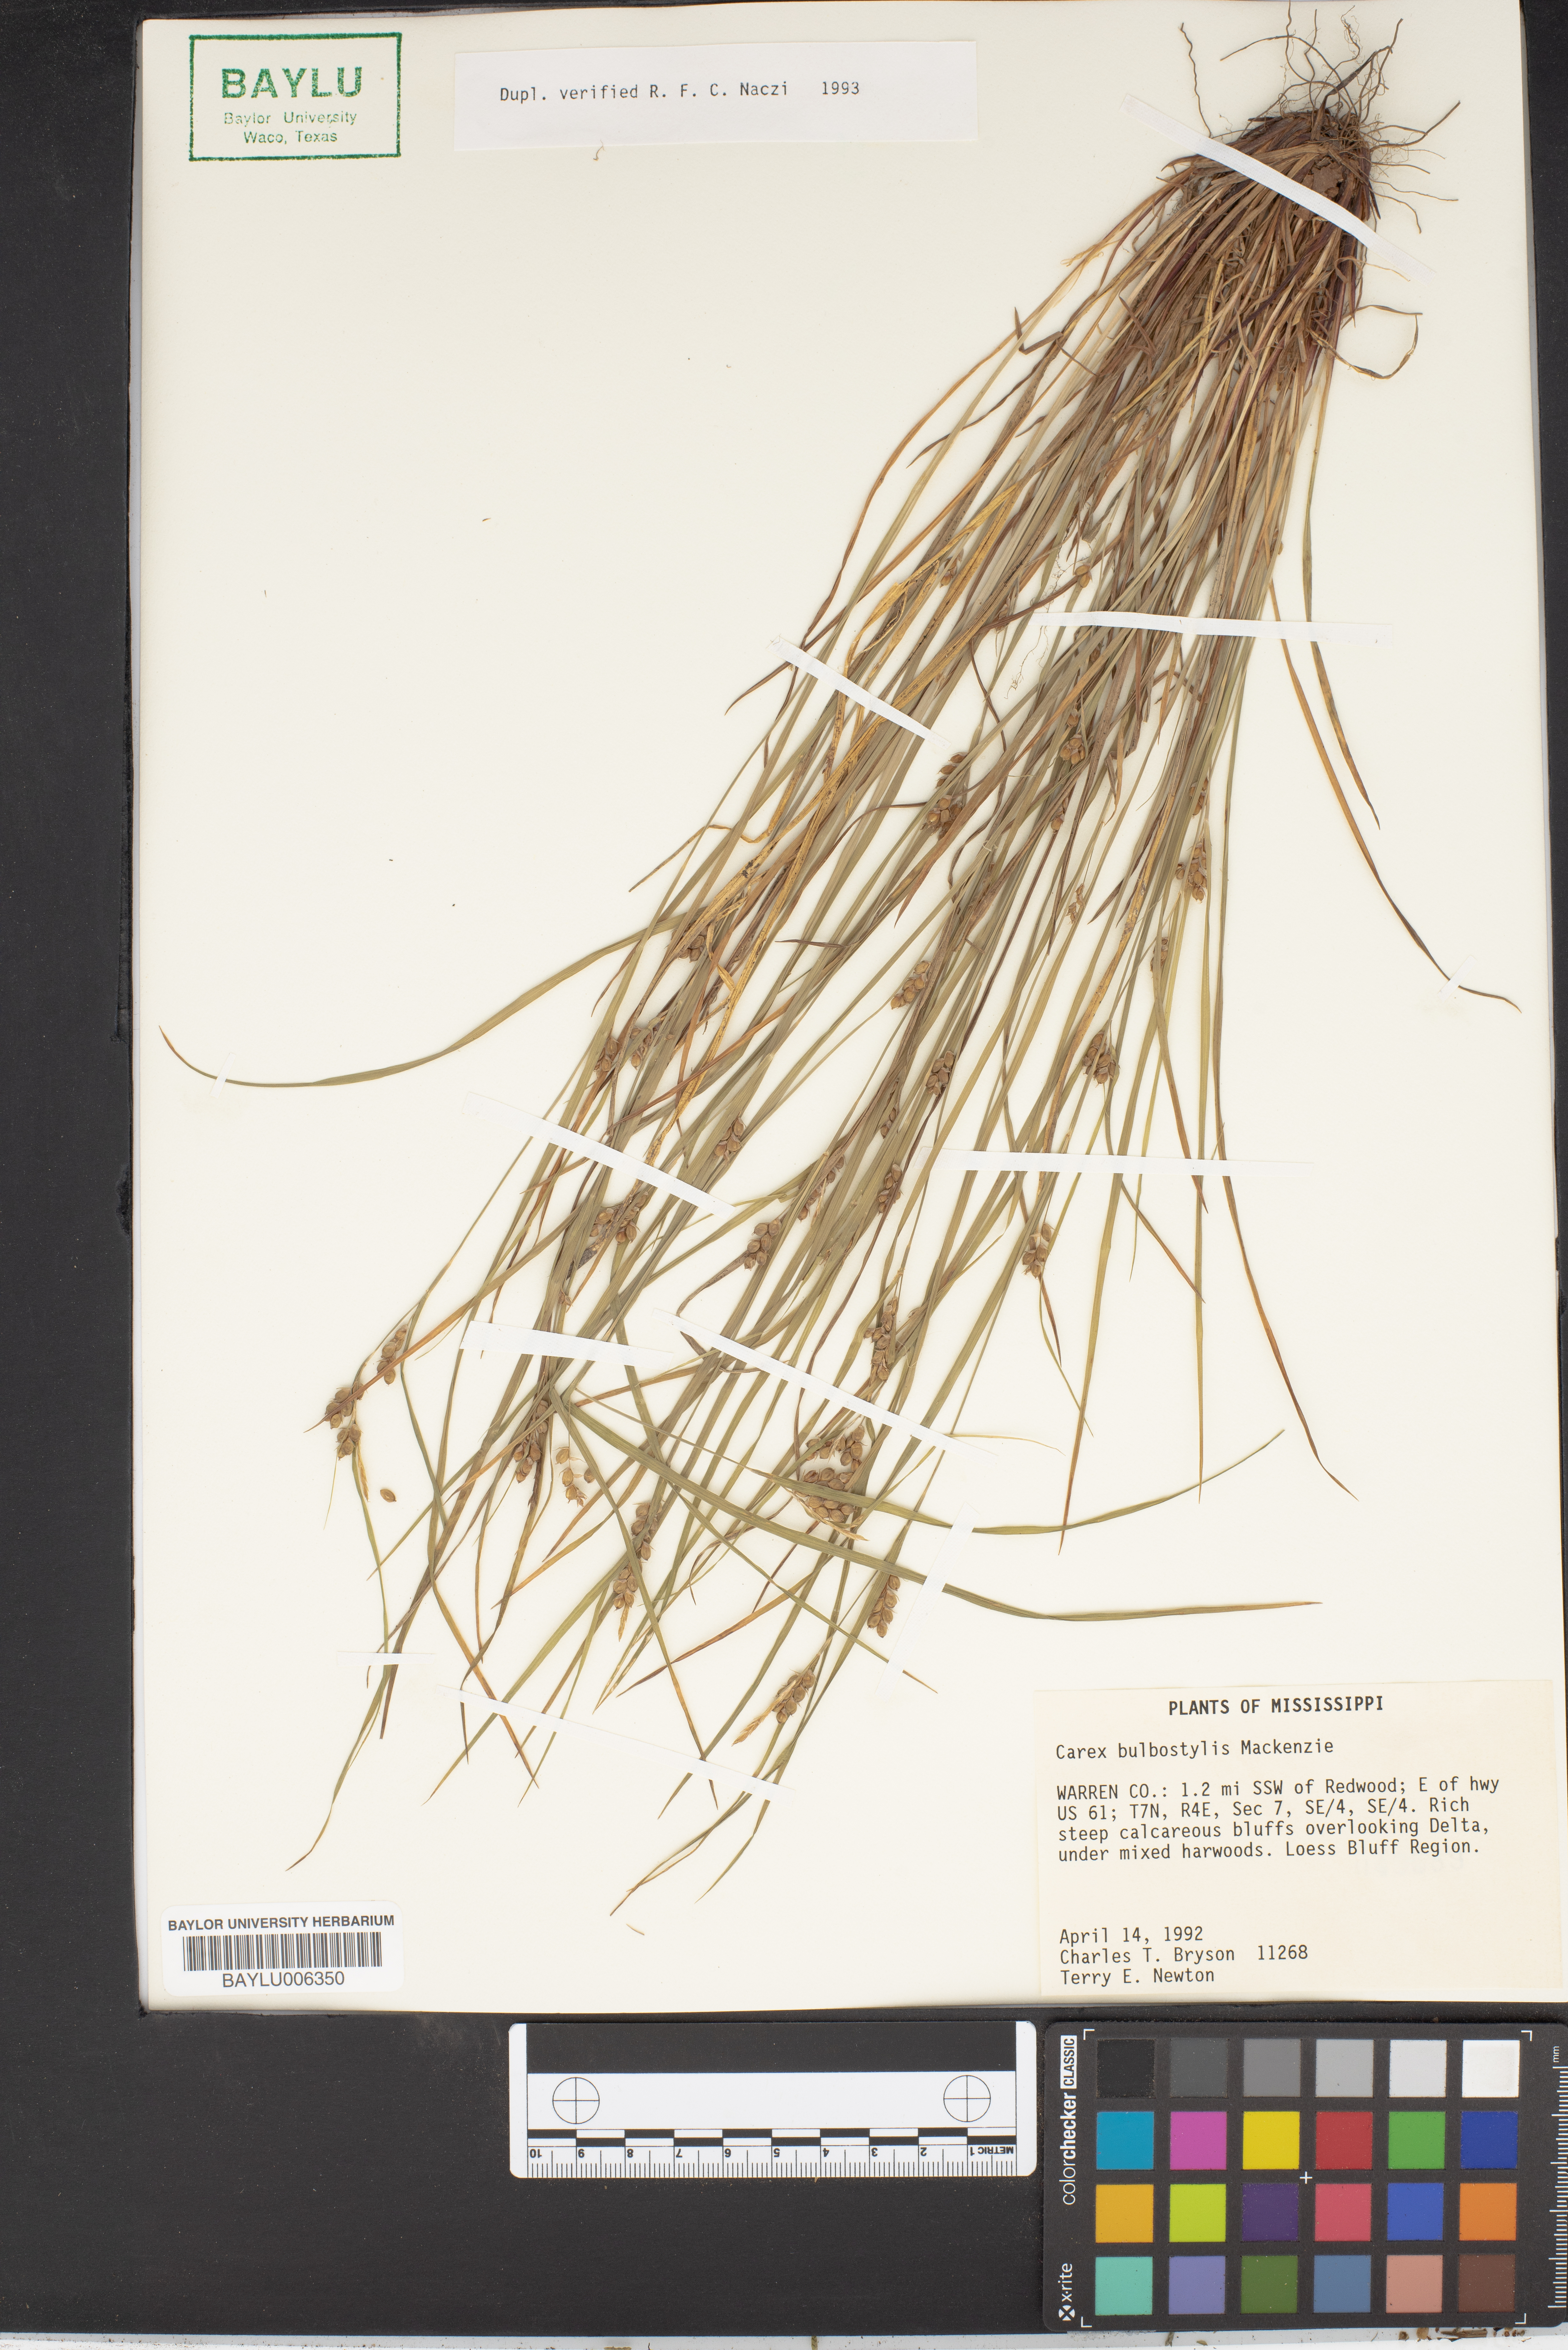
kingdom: Plantae
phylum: Tracheophyta
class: Liliopsida
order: Poales
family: Cyperaceae
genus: Carex
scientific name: Carex bulbostylis
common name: Eastern narrowleaf sedge
